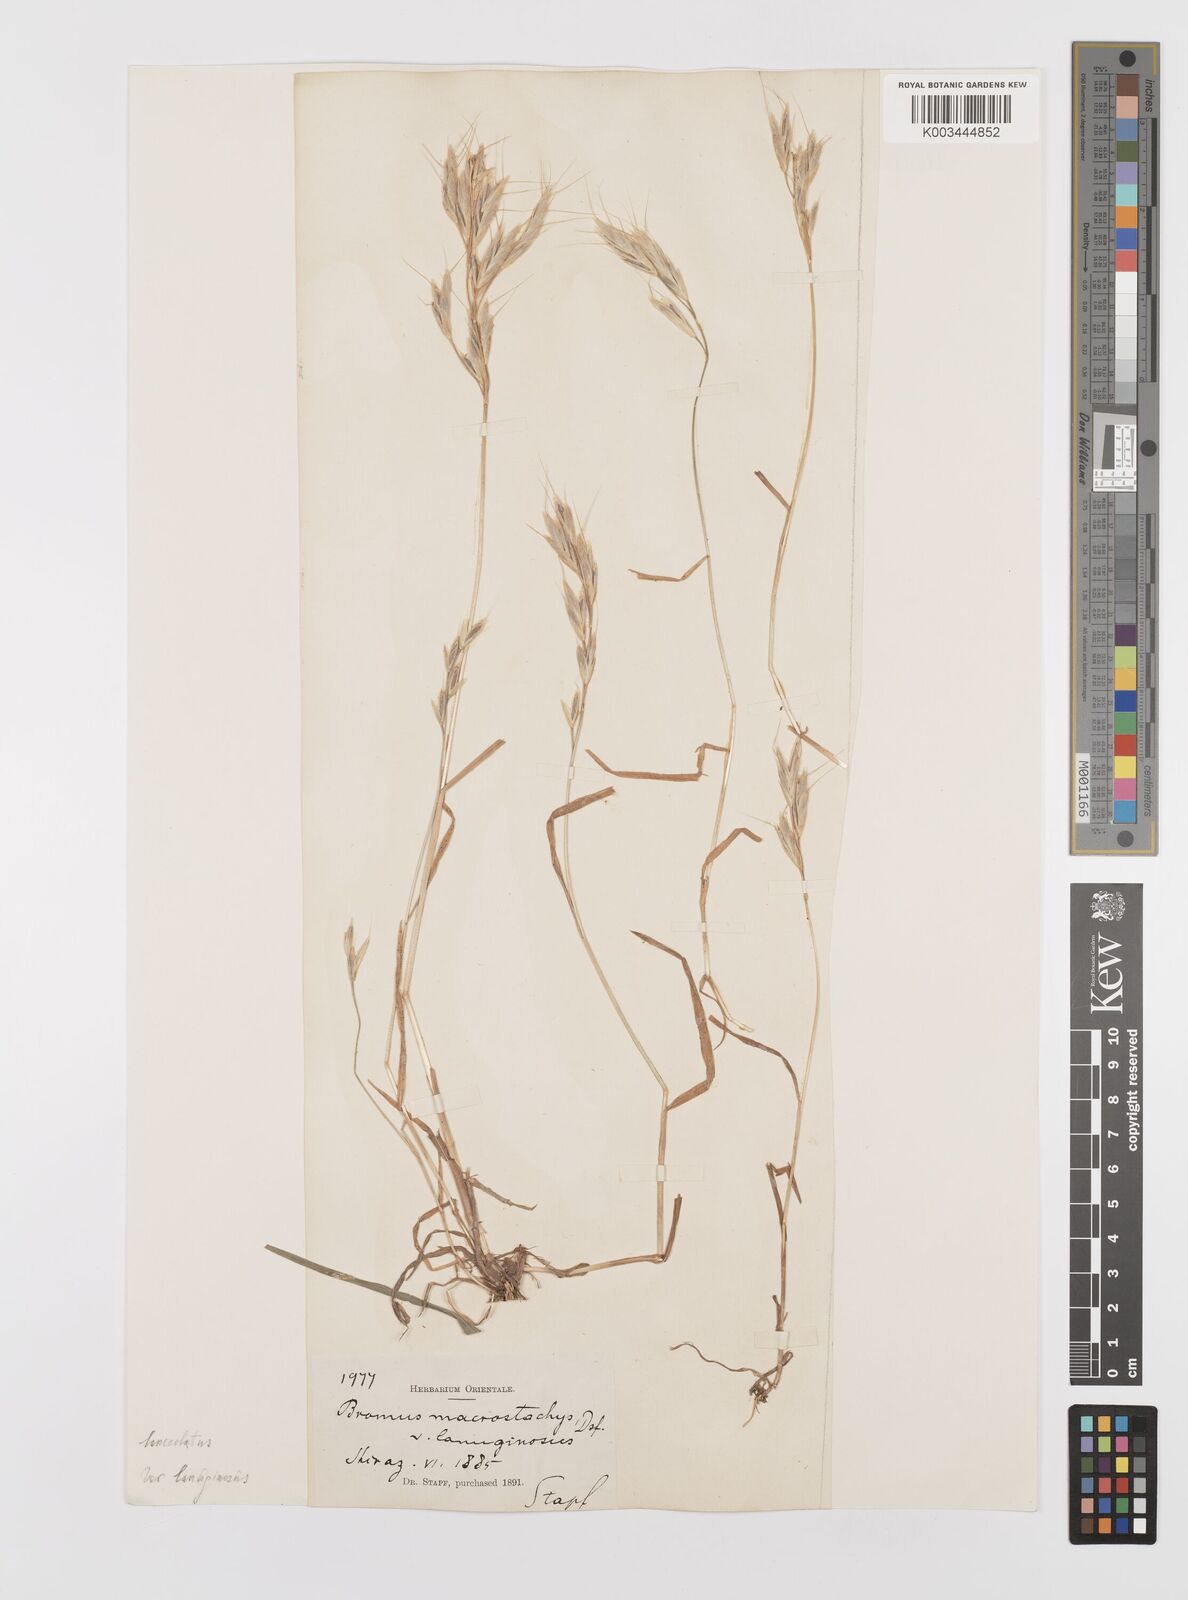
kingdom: Plantae
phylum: Tracheophyta
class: Liliopsida
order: Poales
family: Poaceae
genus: Bromus
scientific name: Bromus lanceolatus
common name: Mediterranean brome
